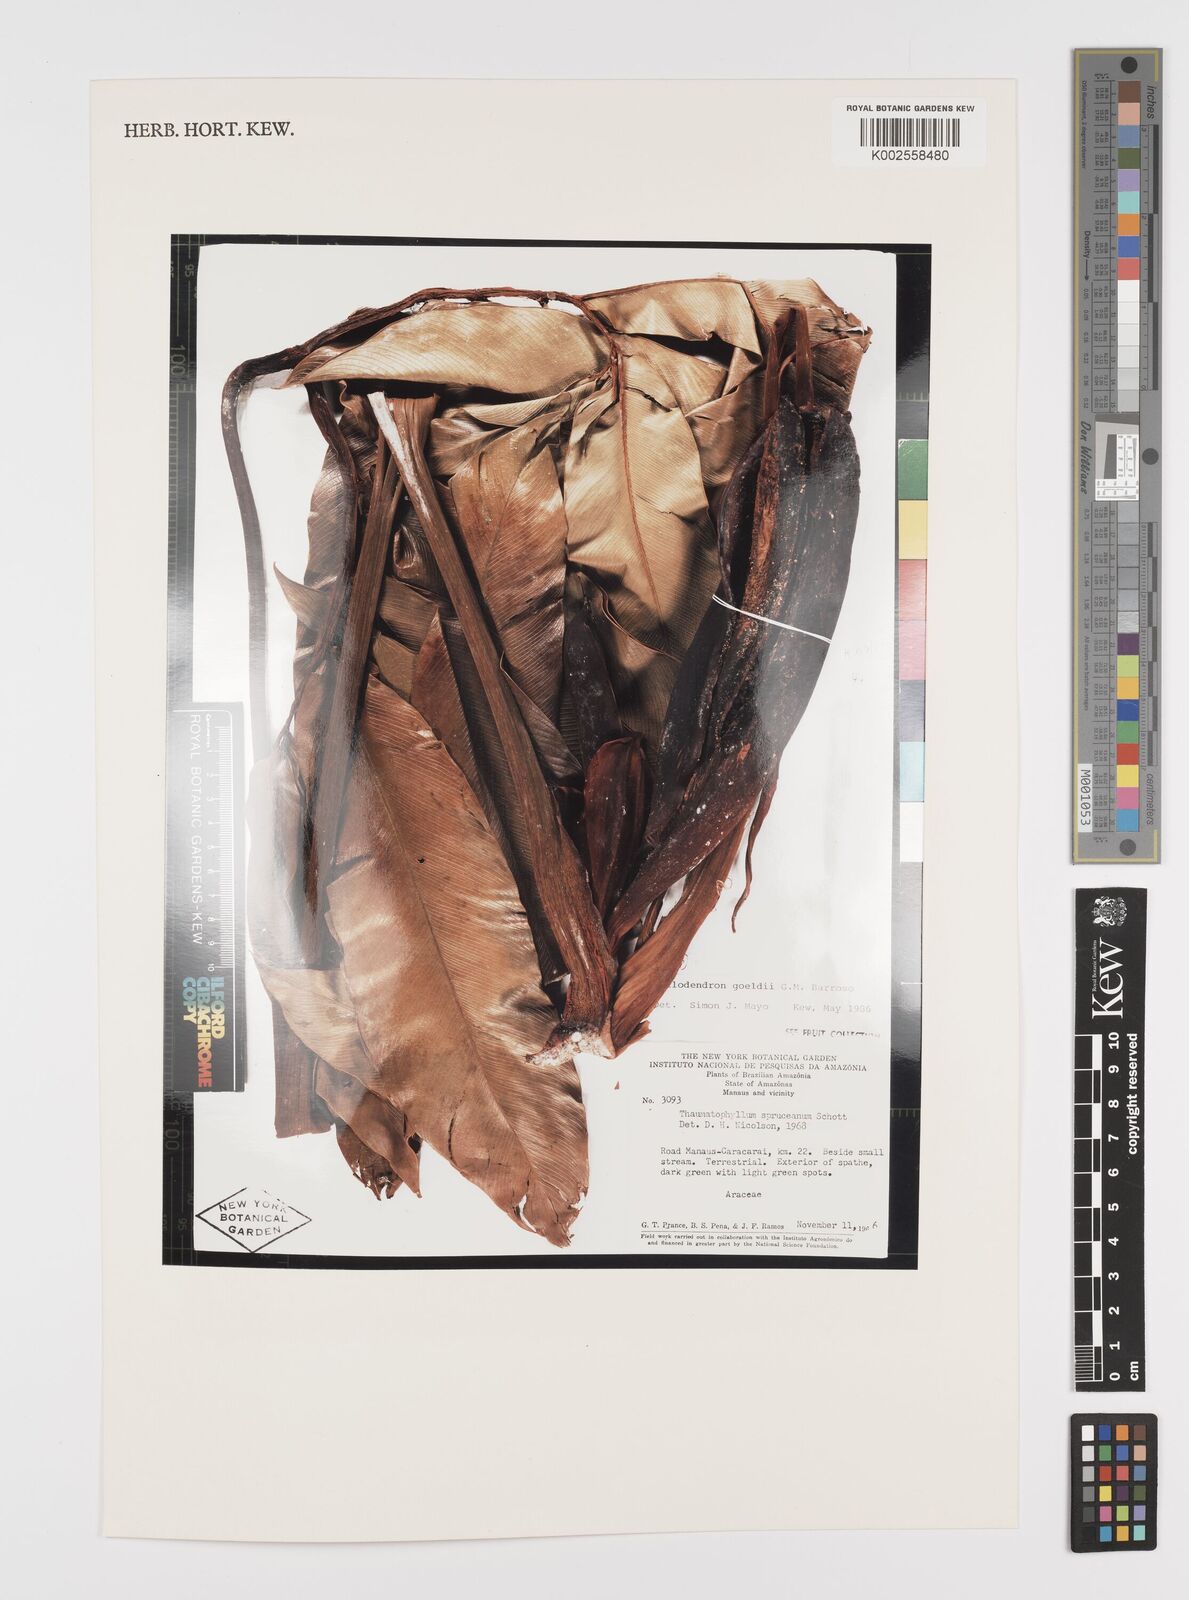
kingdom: Plantae
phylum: Tracheophyta
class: Liliopsida
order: Alismatales
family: Araceae
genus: Thaumatophyllum
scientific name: Thaumatophyllum spruceanum
